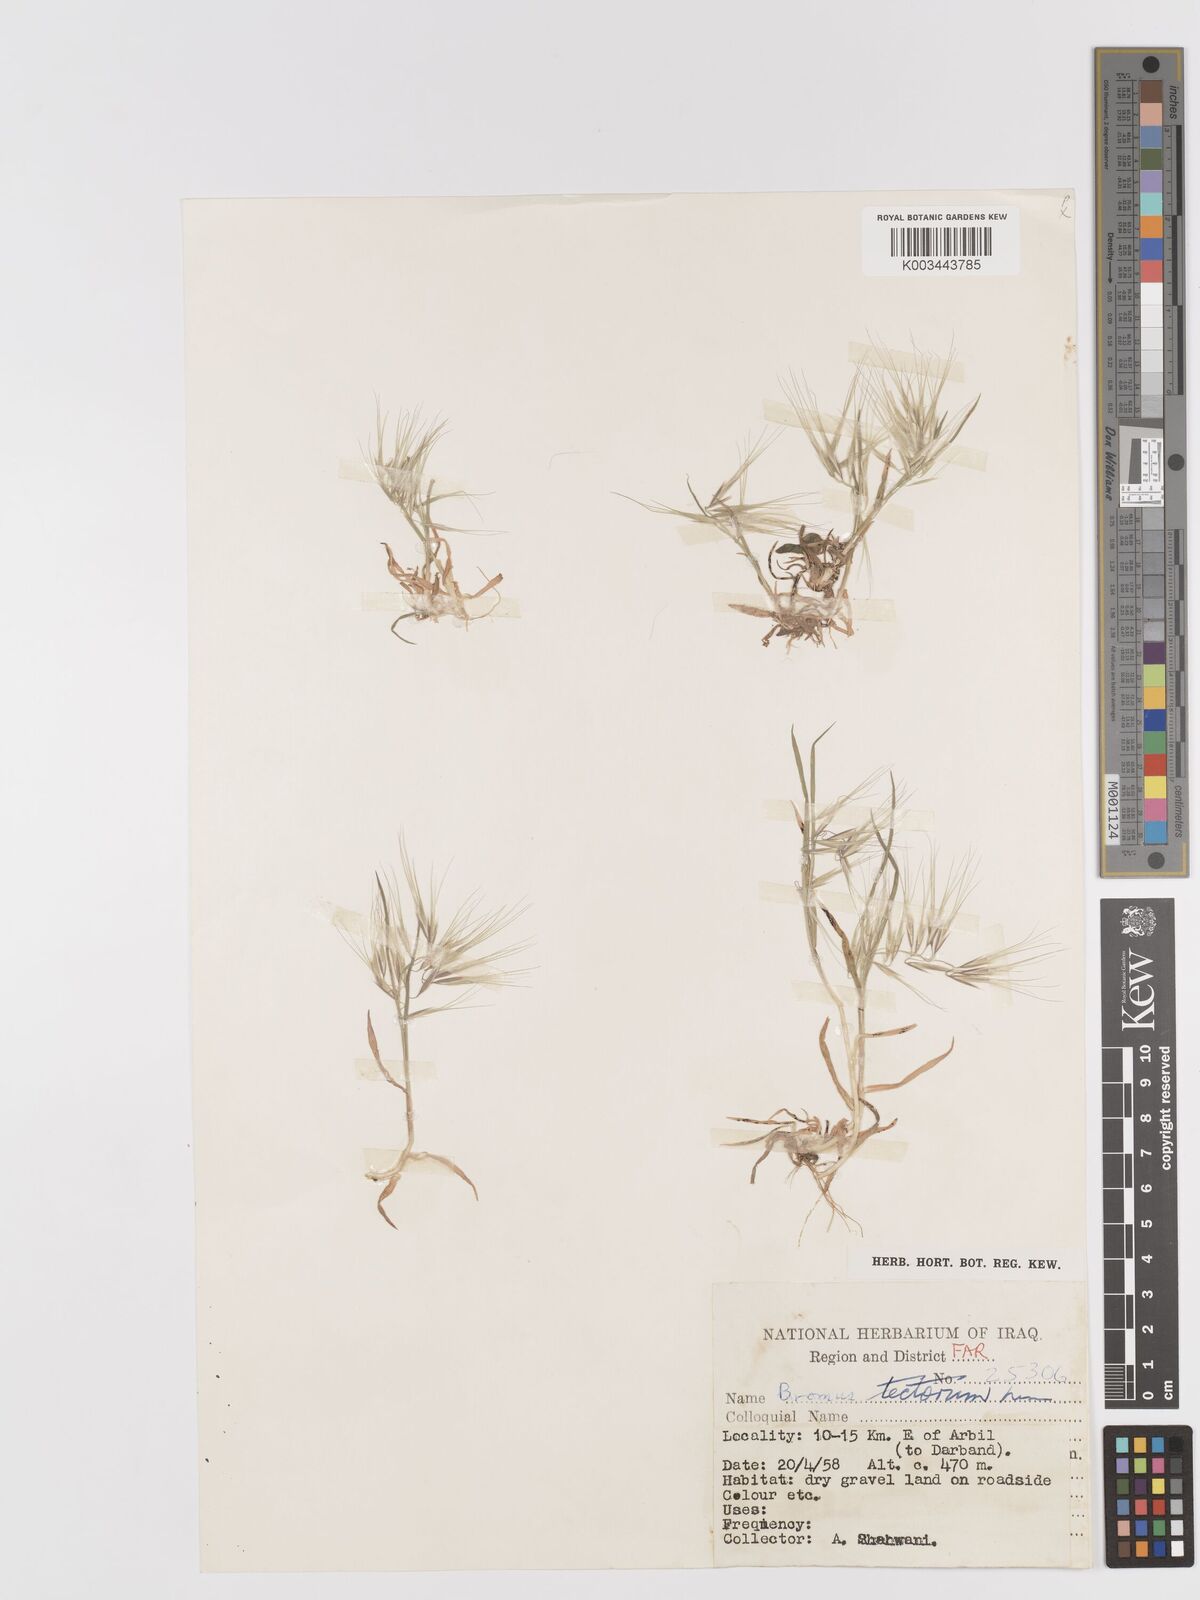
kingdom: Plantae
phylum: Tracheophyta
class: Liliopsida
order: Poales
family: Poaceae
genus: Bromus
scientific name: Bromus tectorum
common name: Cheatgrass
